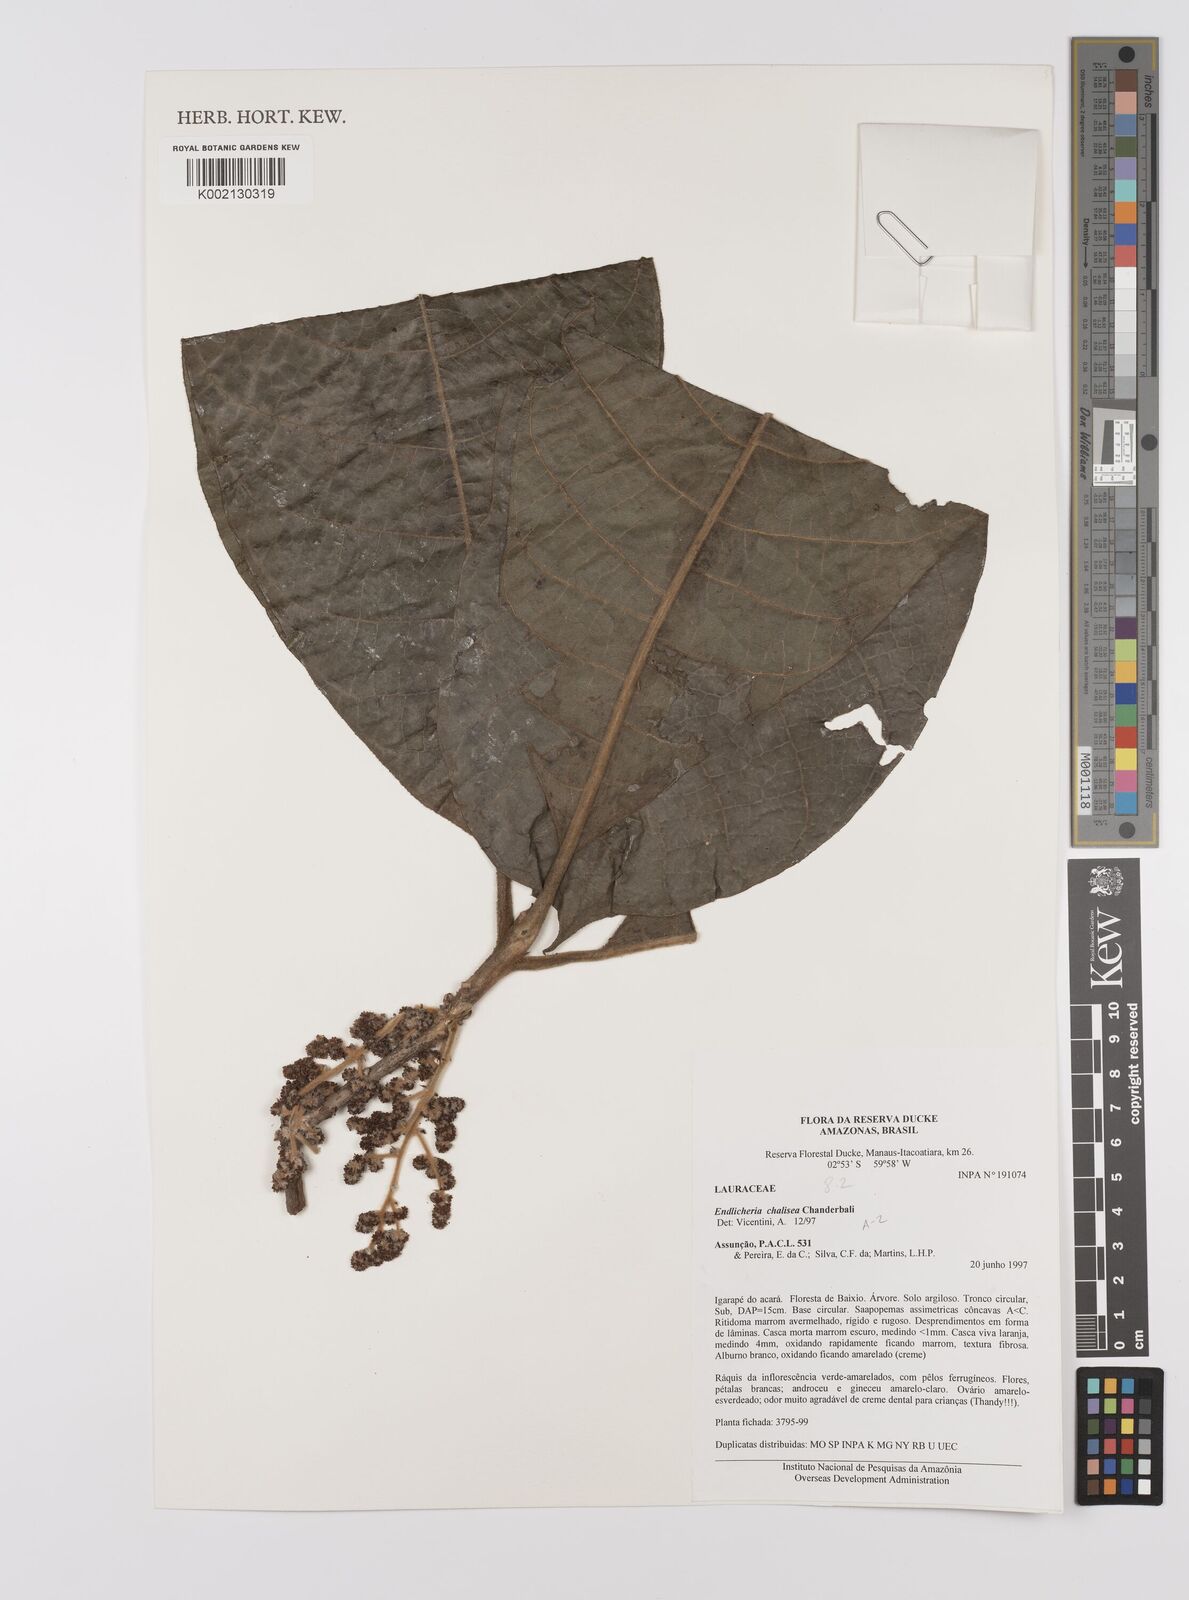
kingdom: Plantae
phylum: Tracheophyta
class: Magnoliopsida
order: Laurales
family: Lauraceae
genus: Endlicheria
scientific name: Endlicheria chalisea
